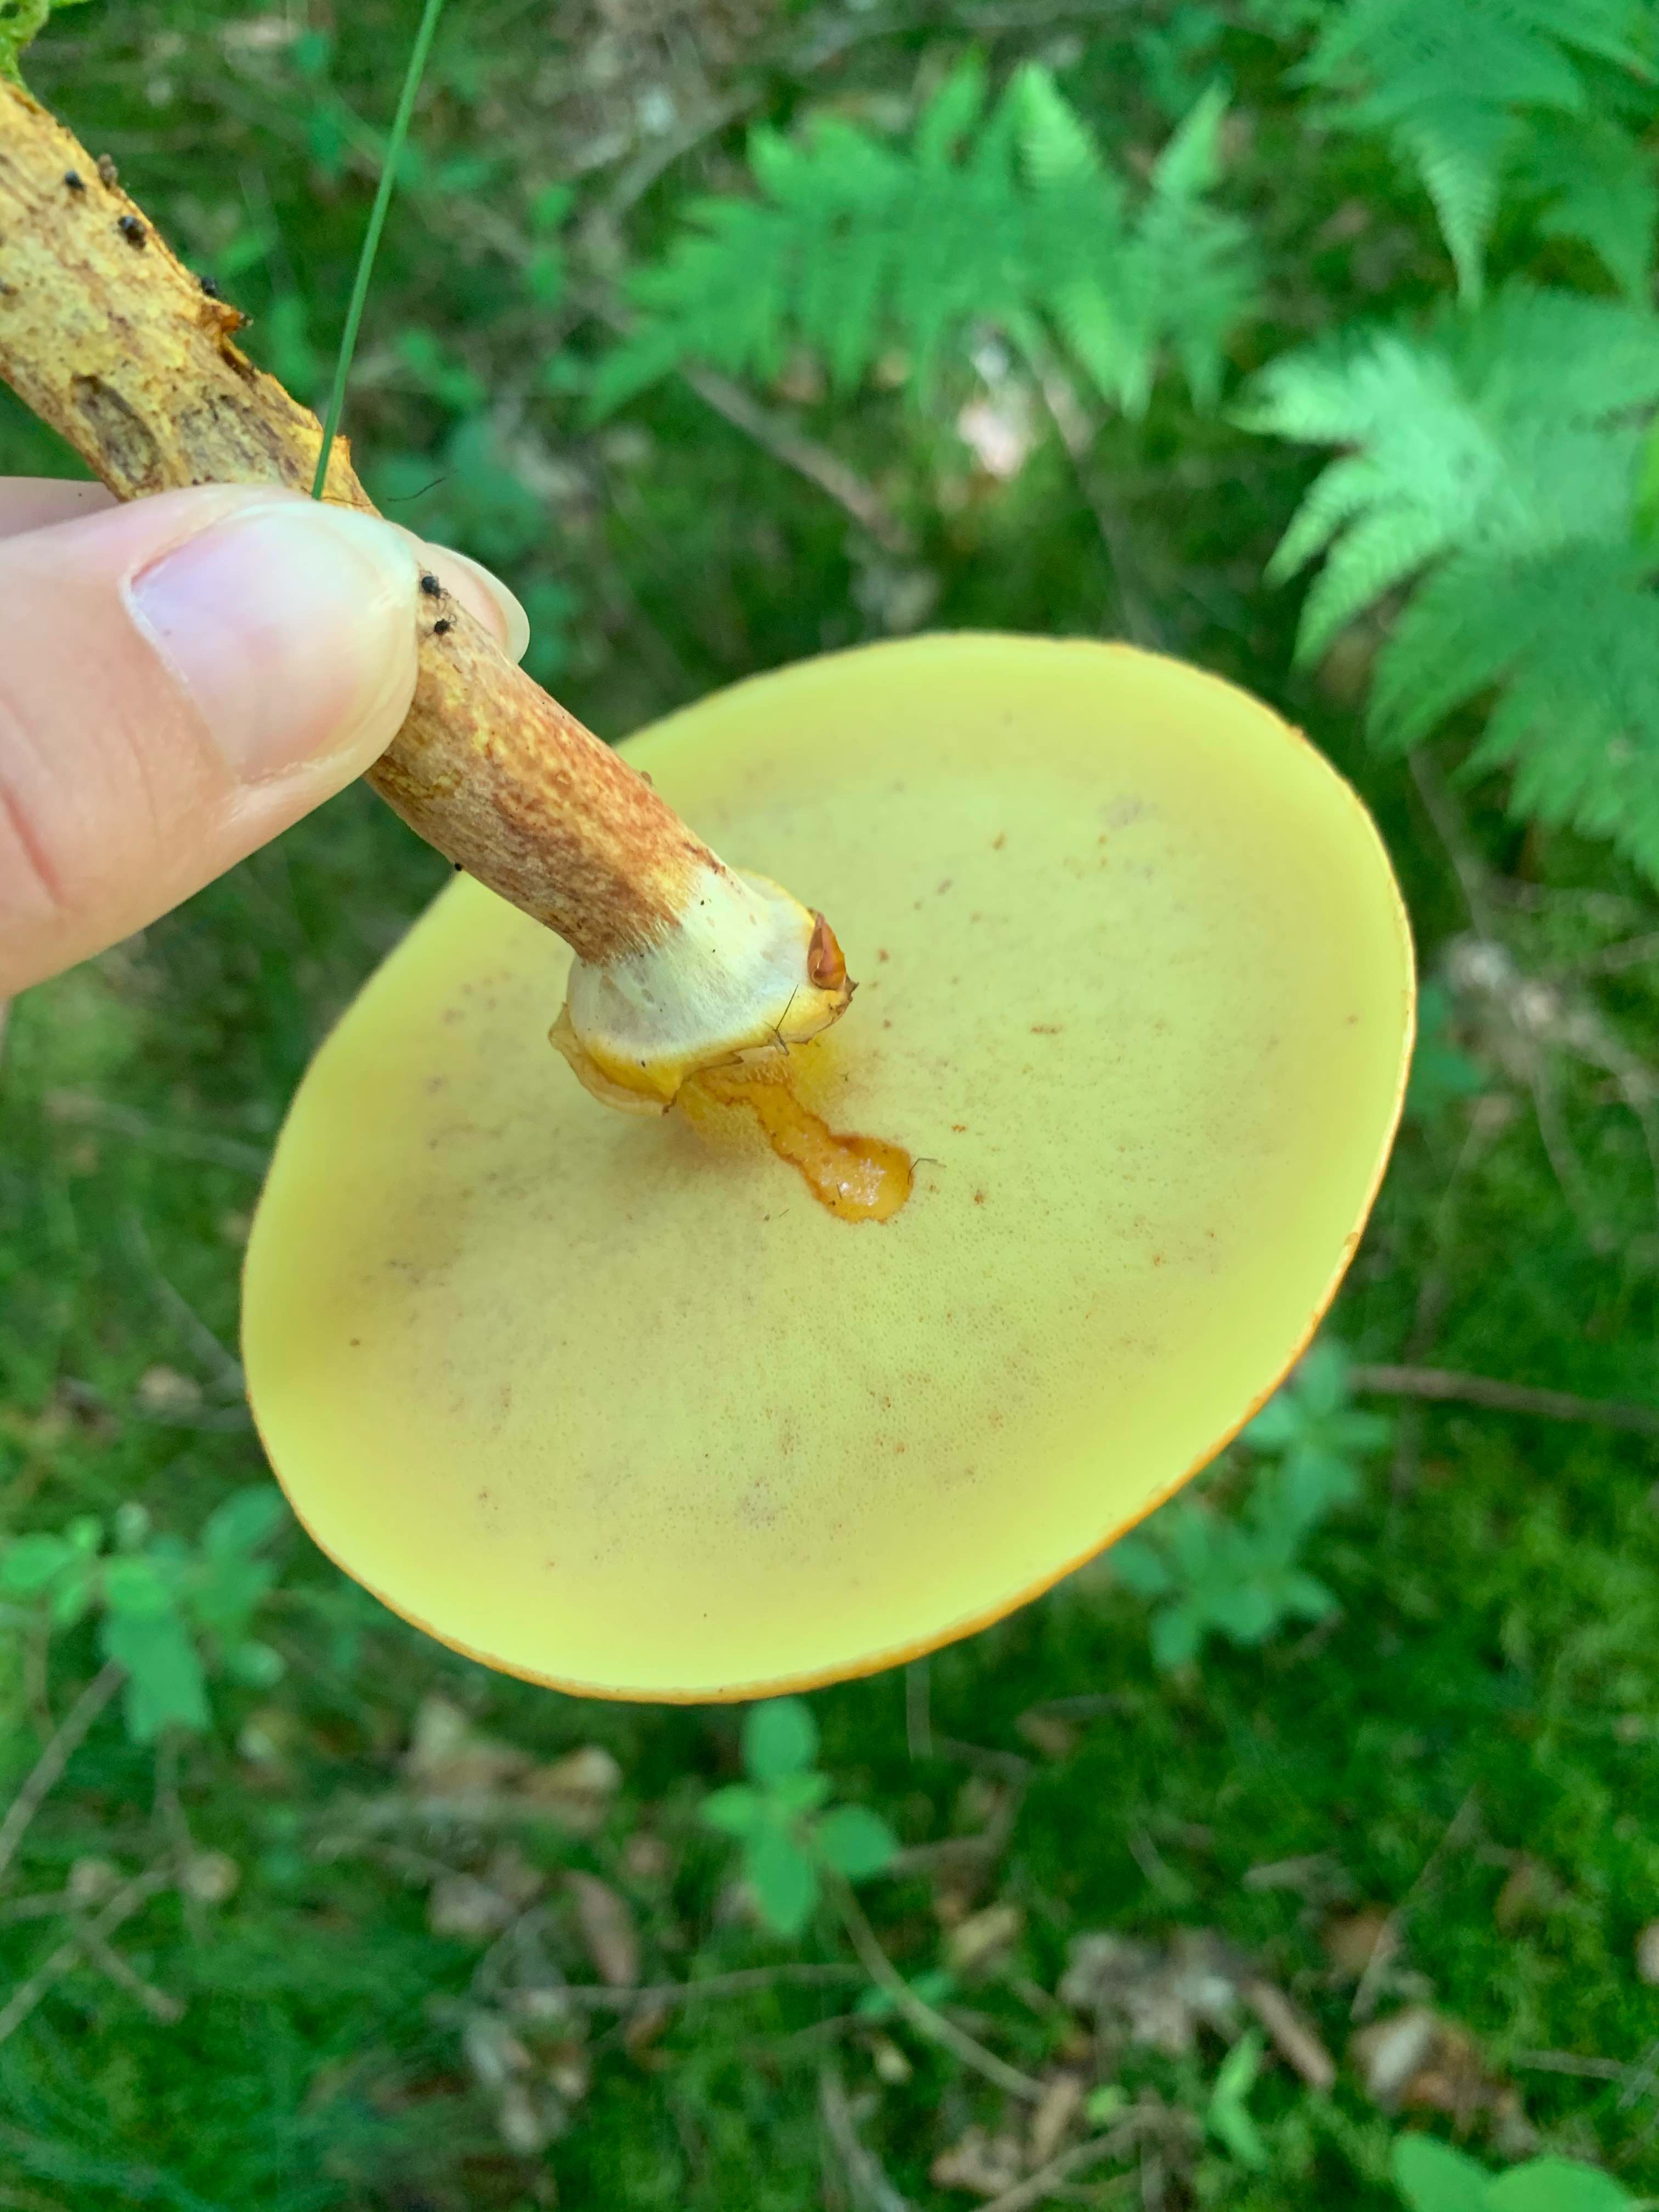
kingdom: Fungi
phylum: Basidiomycota
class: Agaricomycetes
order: Boletales
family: Suillaceae
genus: Suillus
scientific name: Suillus grevillei
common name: lærke-slimrørhat
